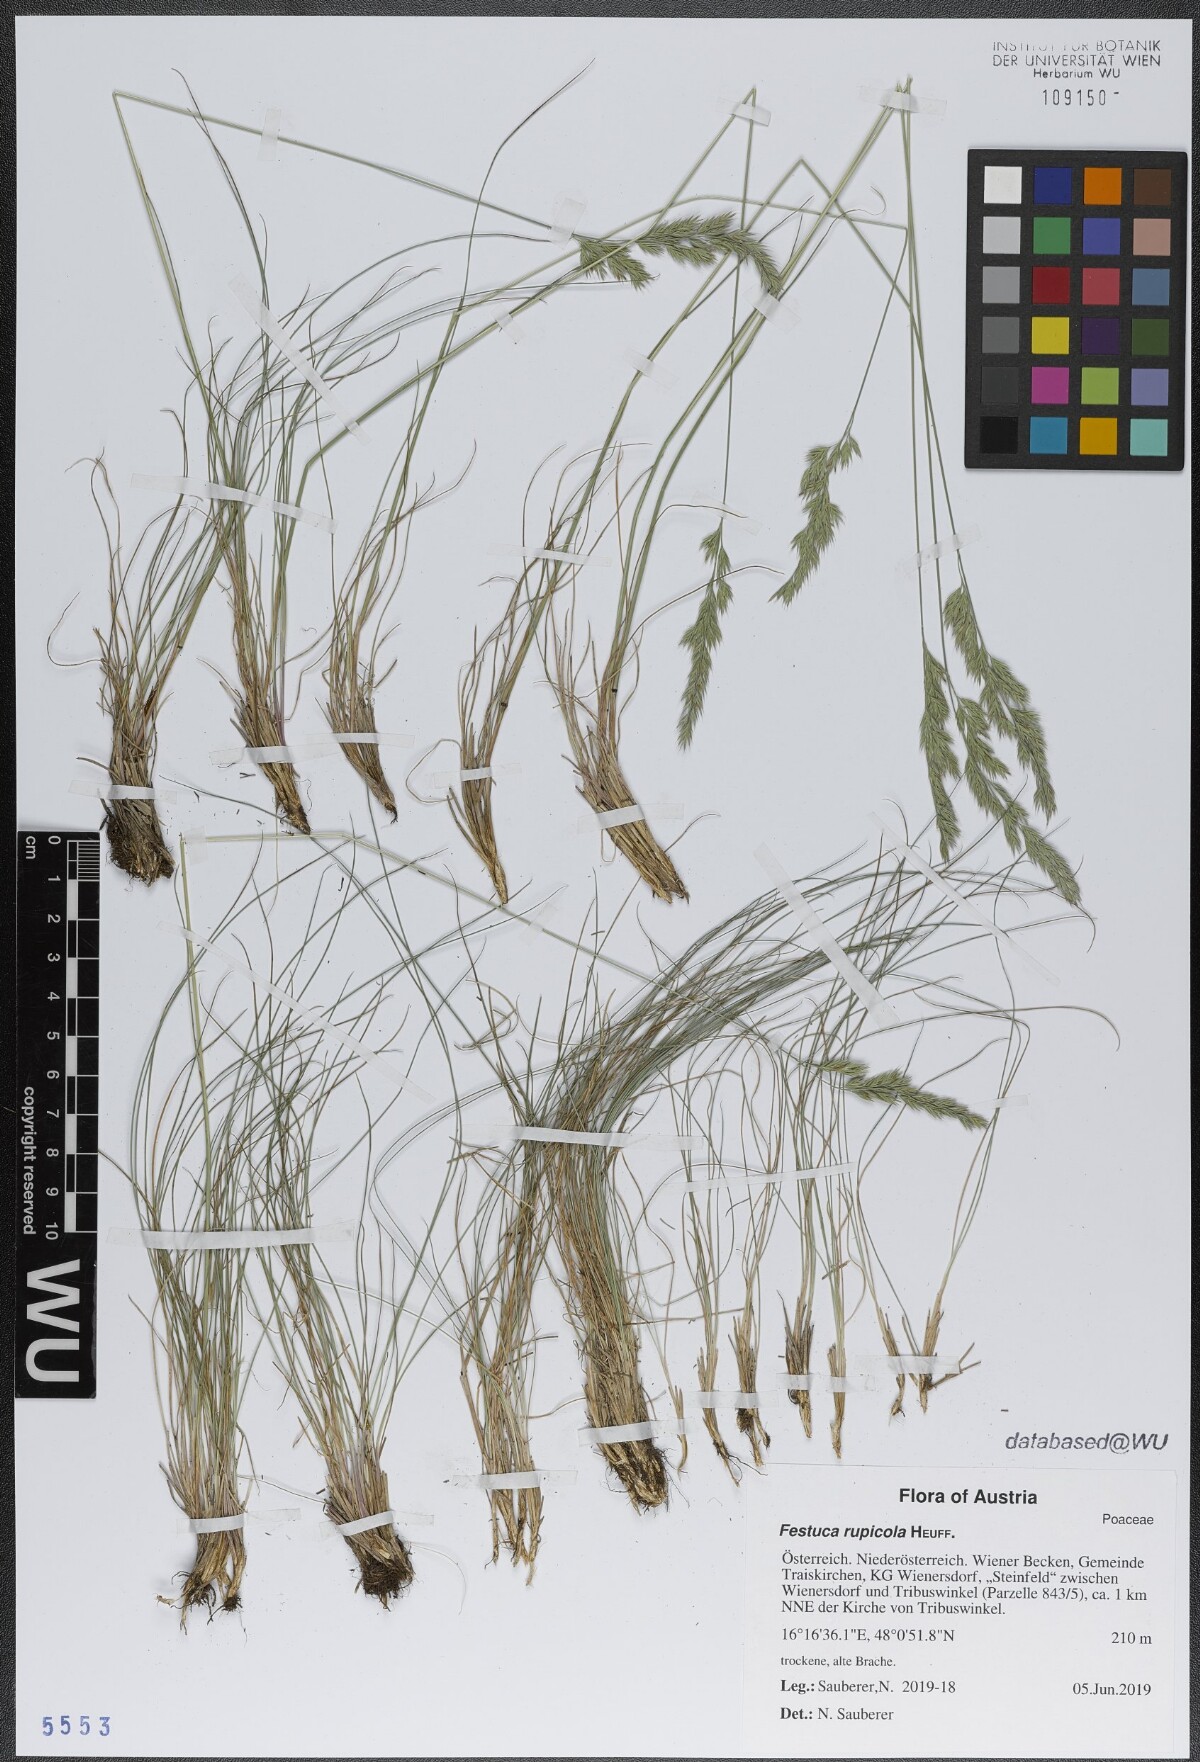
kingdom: Plantae
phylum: Tracheophyta
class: Liliopsida
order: Poales
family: Poaceae
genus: Festuca
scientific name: Festuca rupicola
